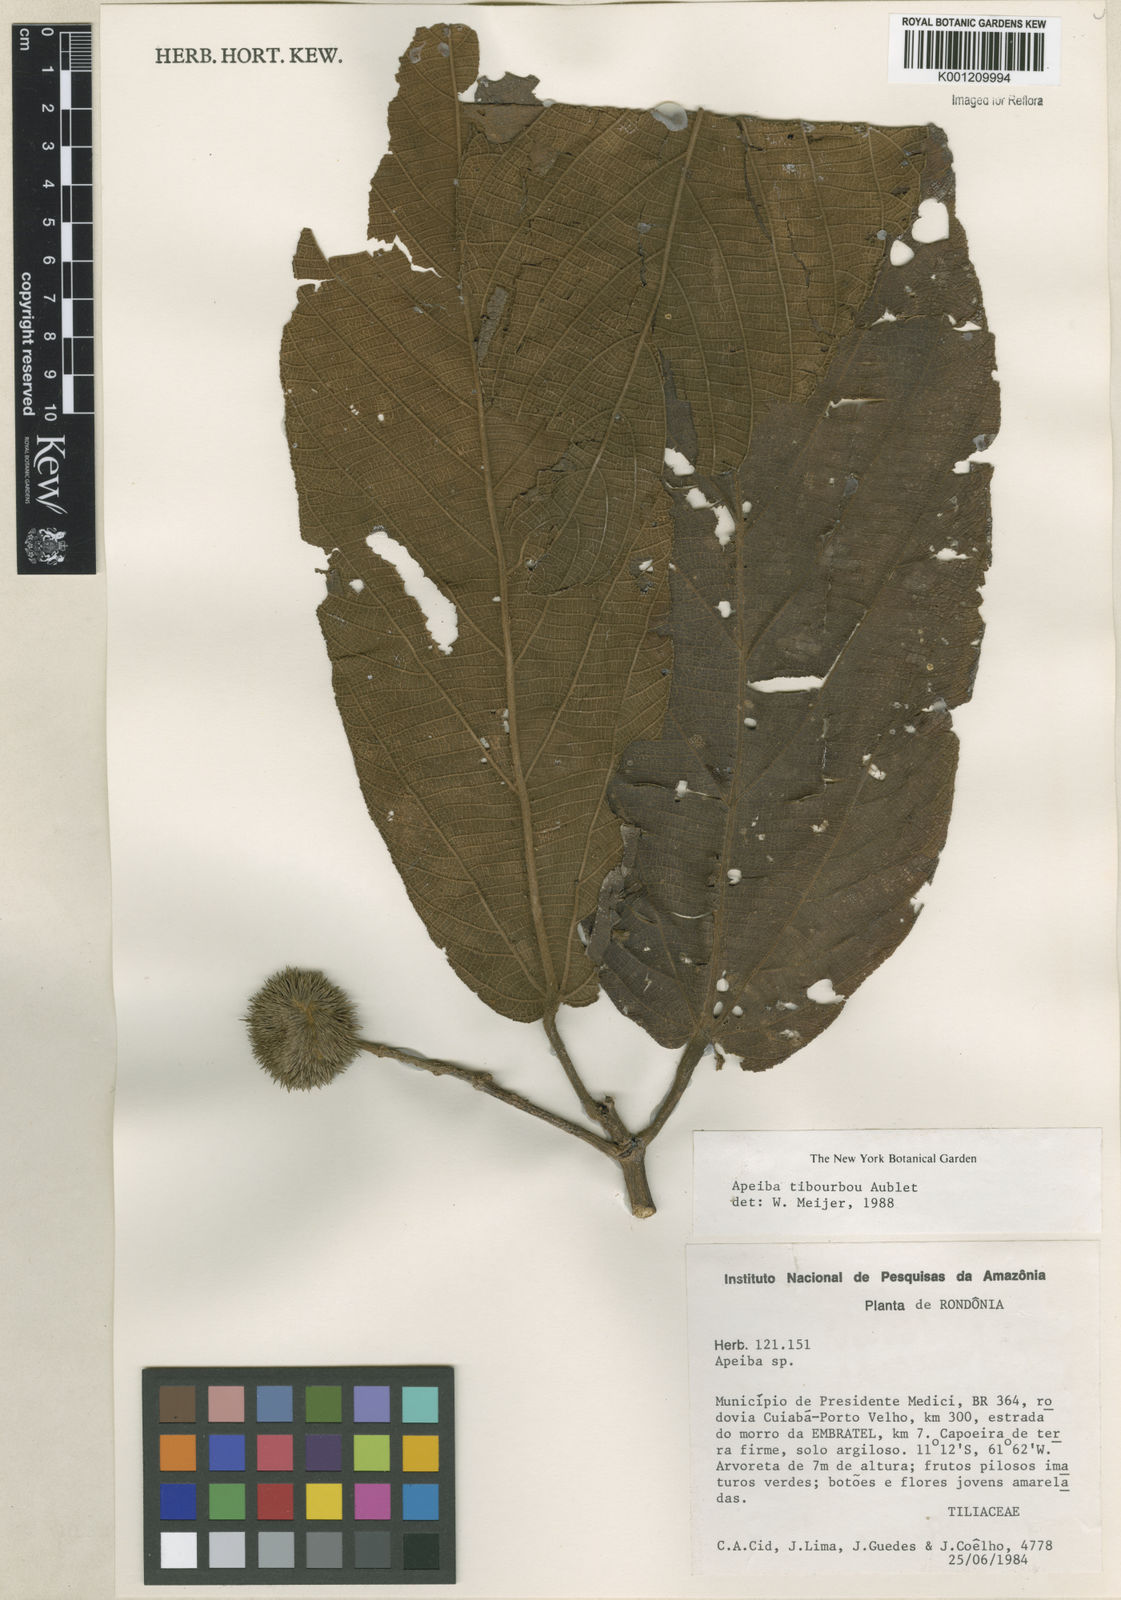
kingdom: Plantae
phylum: Tracheophyta
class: Magnoliopsida
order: Malvales
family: Malvaceae
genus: Apeiba
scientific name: Apeiba tibourbou
